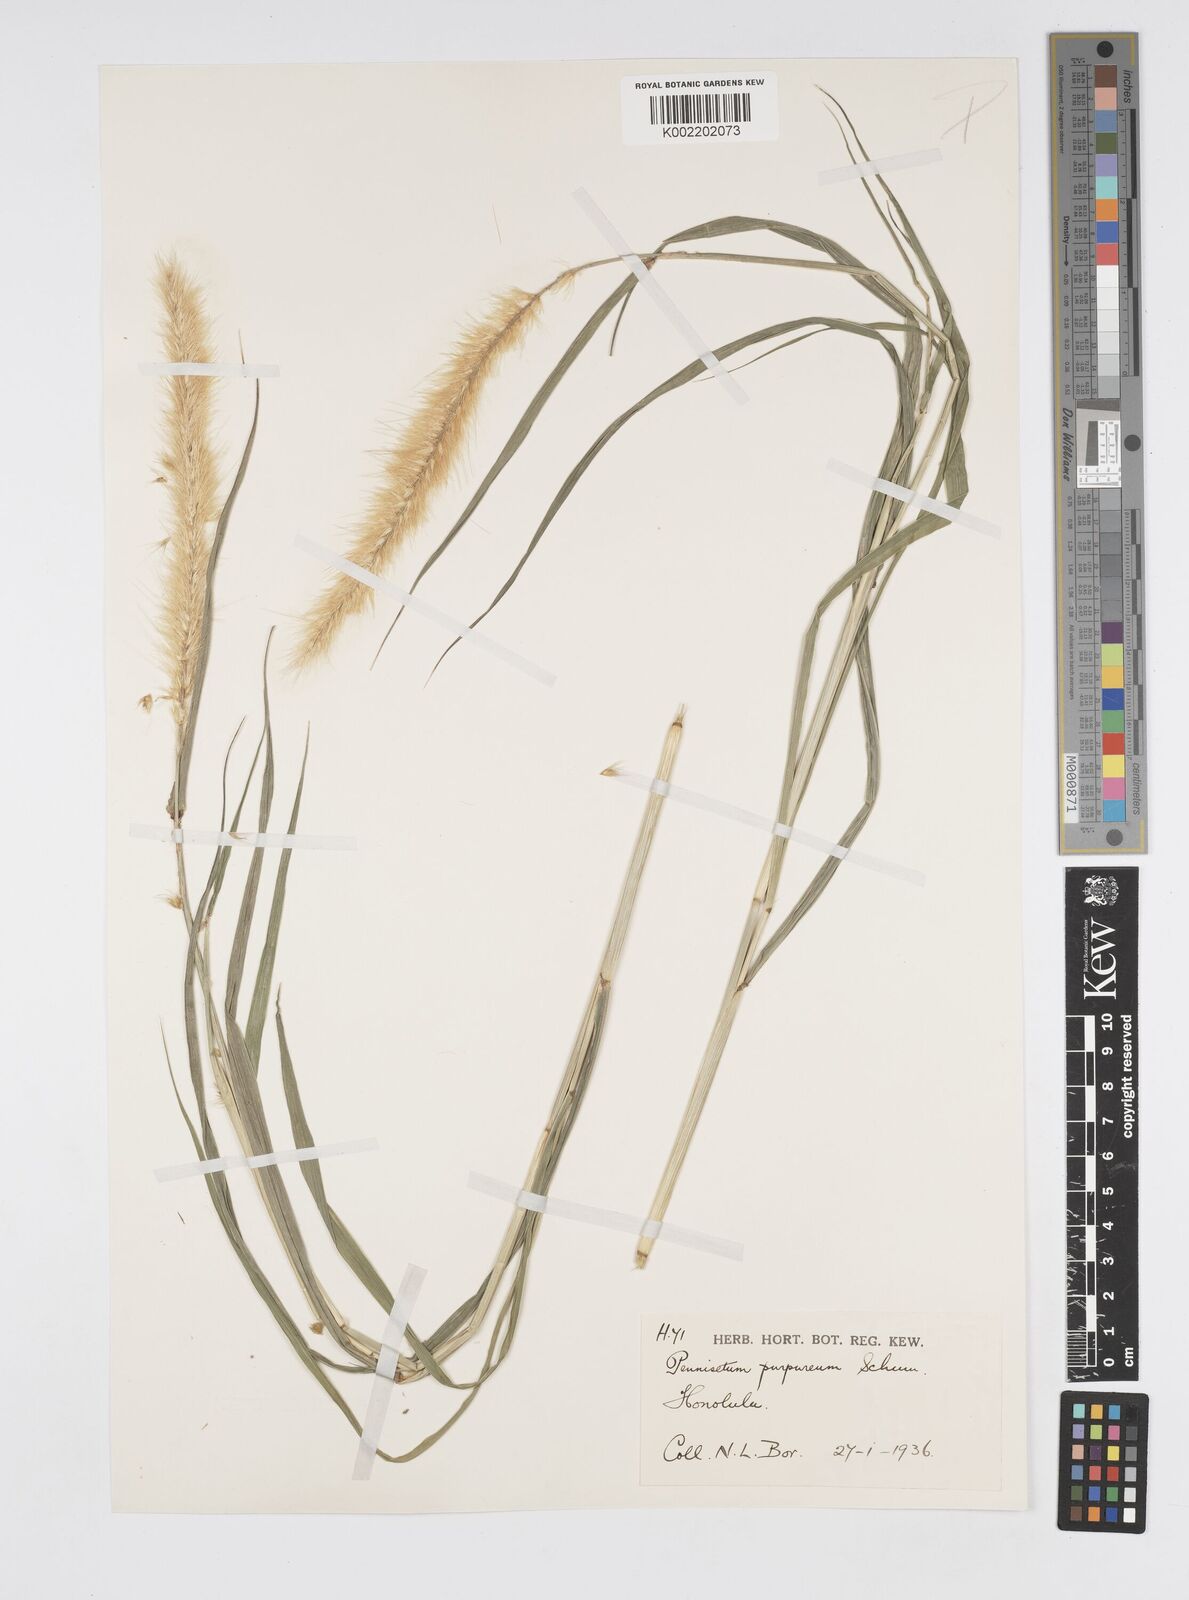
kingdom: Plantae
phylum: Tracheophyta
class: Liliopsida
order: Poales
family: Poaceae
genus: Cenchrus
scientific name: Cenchrus purpureus
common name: Elephant grass
